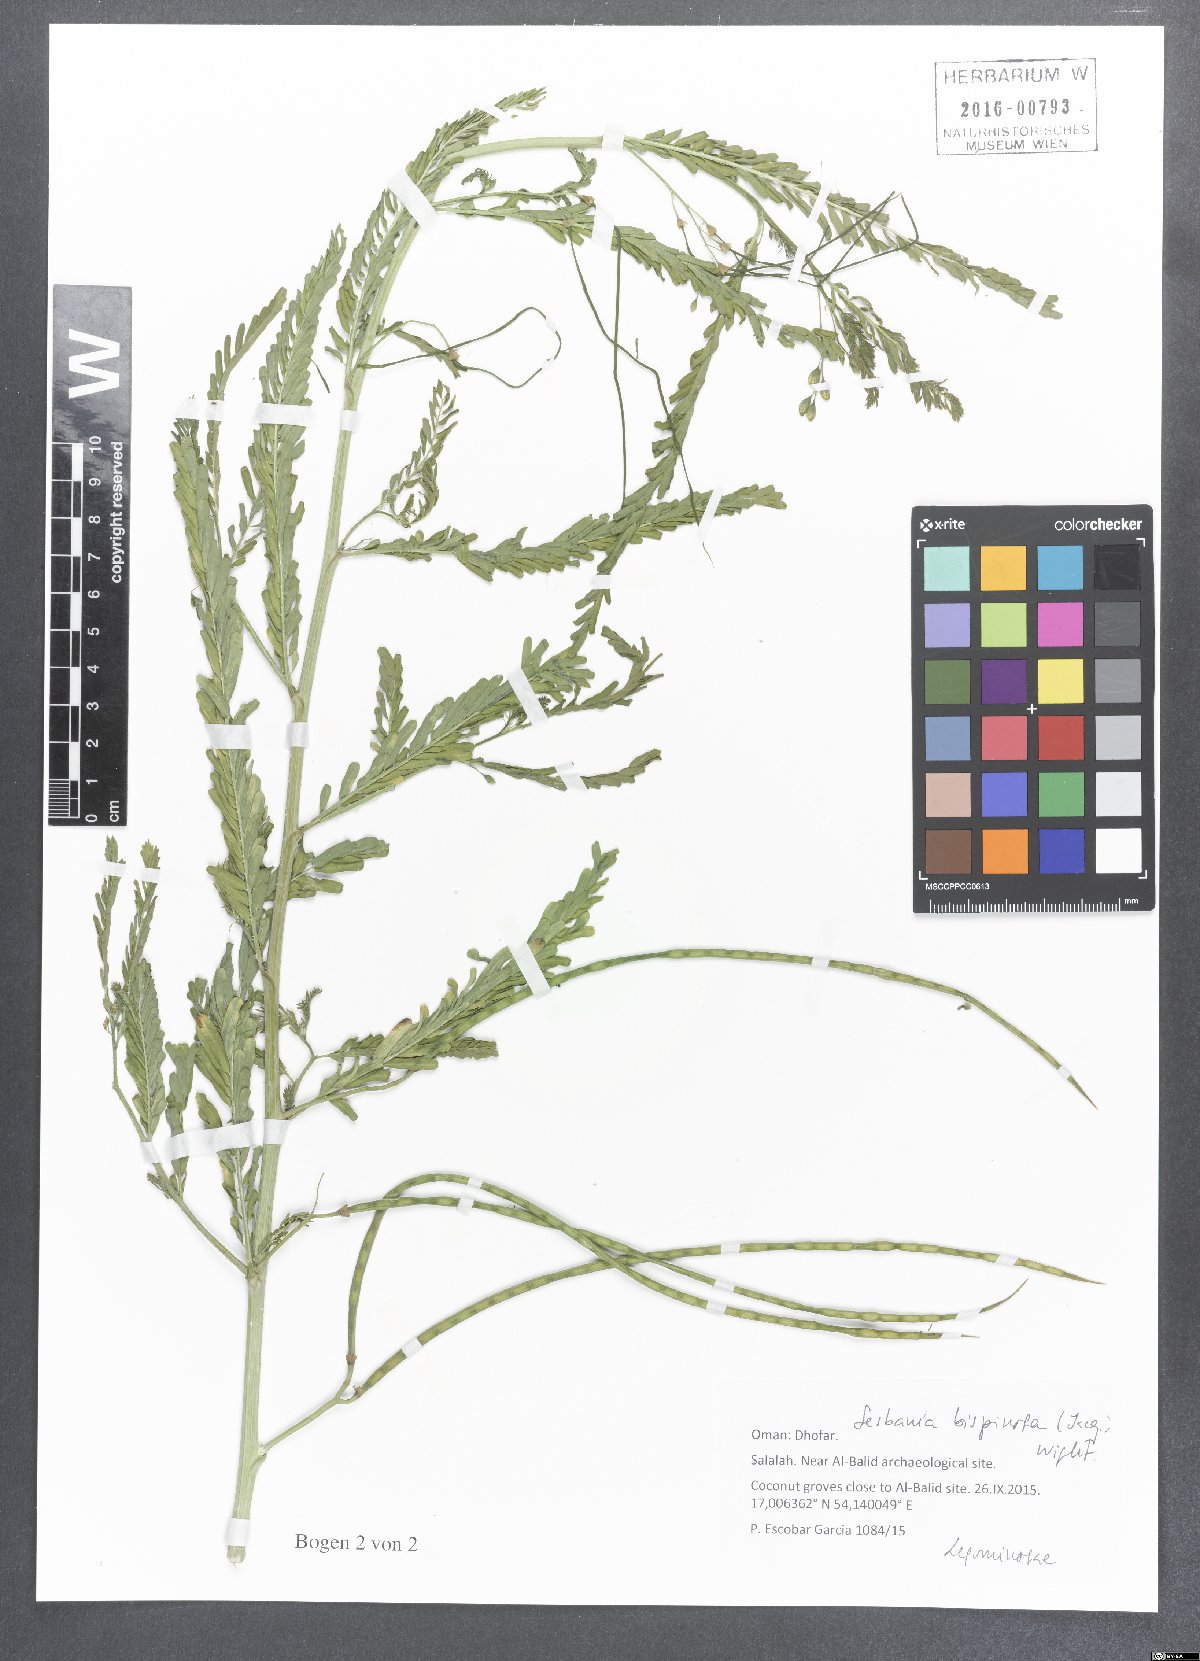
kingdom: Plantae
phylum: Tracheophyta
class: Magnoliopsida
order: Fabales
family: Fabaceae
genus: Sesbania
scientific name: Sesbania bispinosa
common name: Sesbania pea
